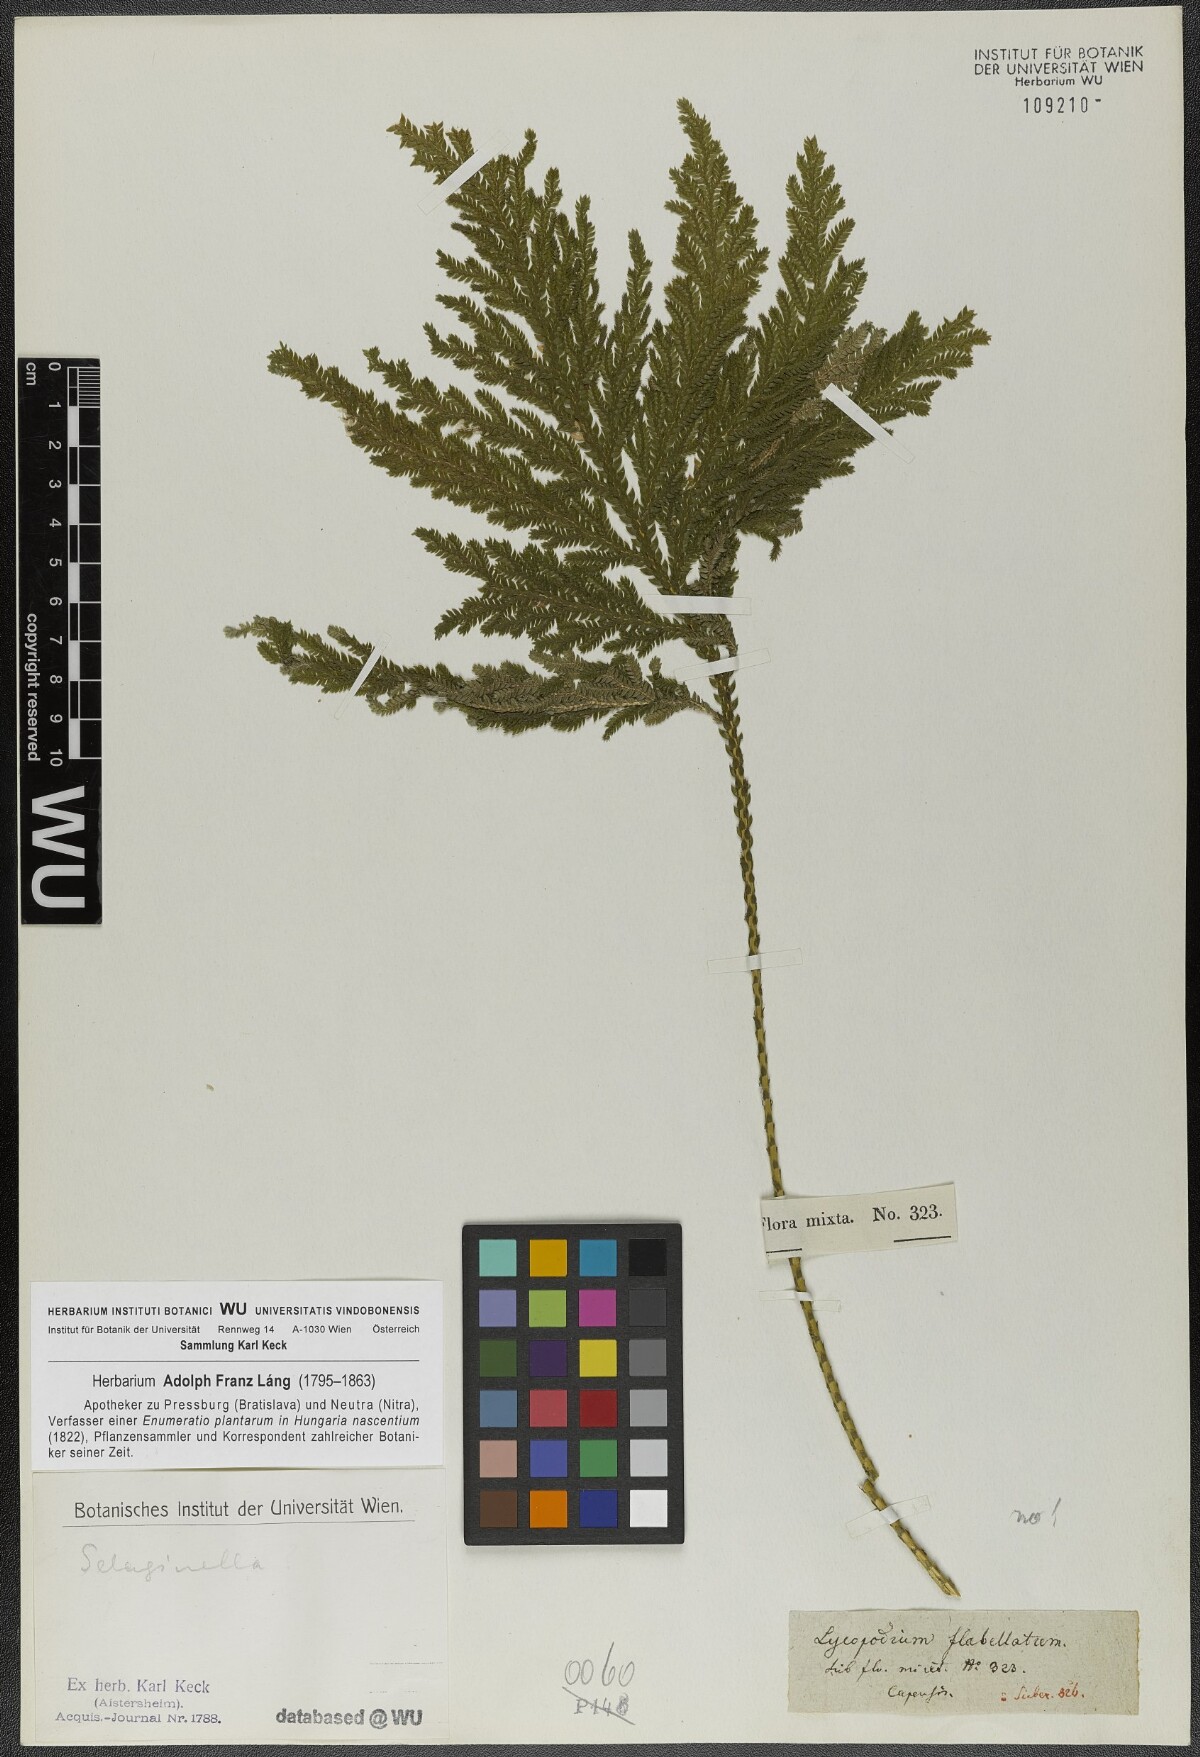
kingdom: Plantae
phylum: Tracheophyta
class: Lycopodiopsida
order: Selaginellales
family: Selaginellaceae
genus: Selaginella
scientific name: Selaginella flabellata
